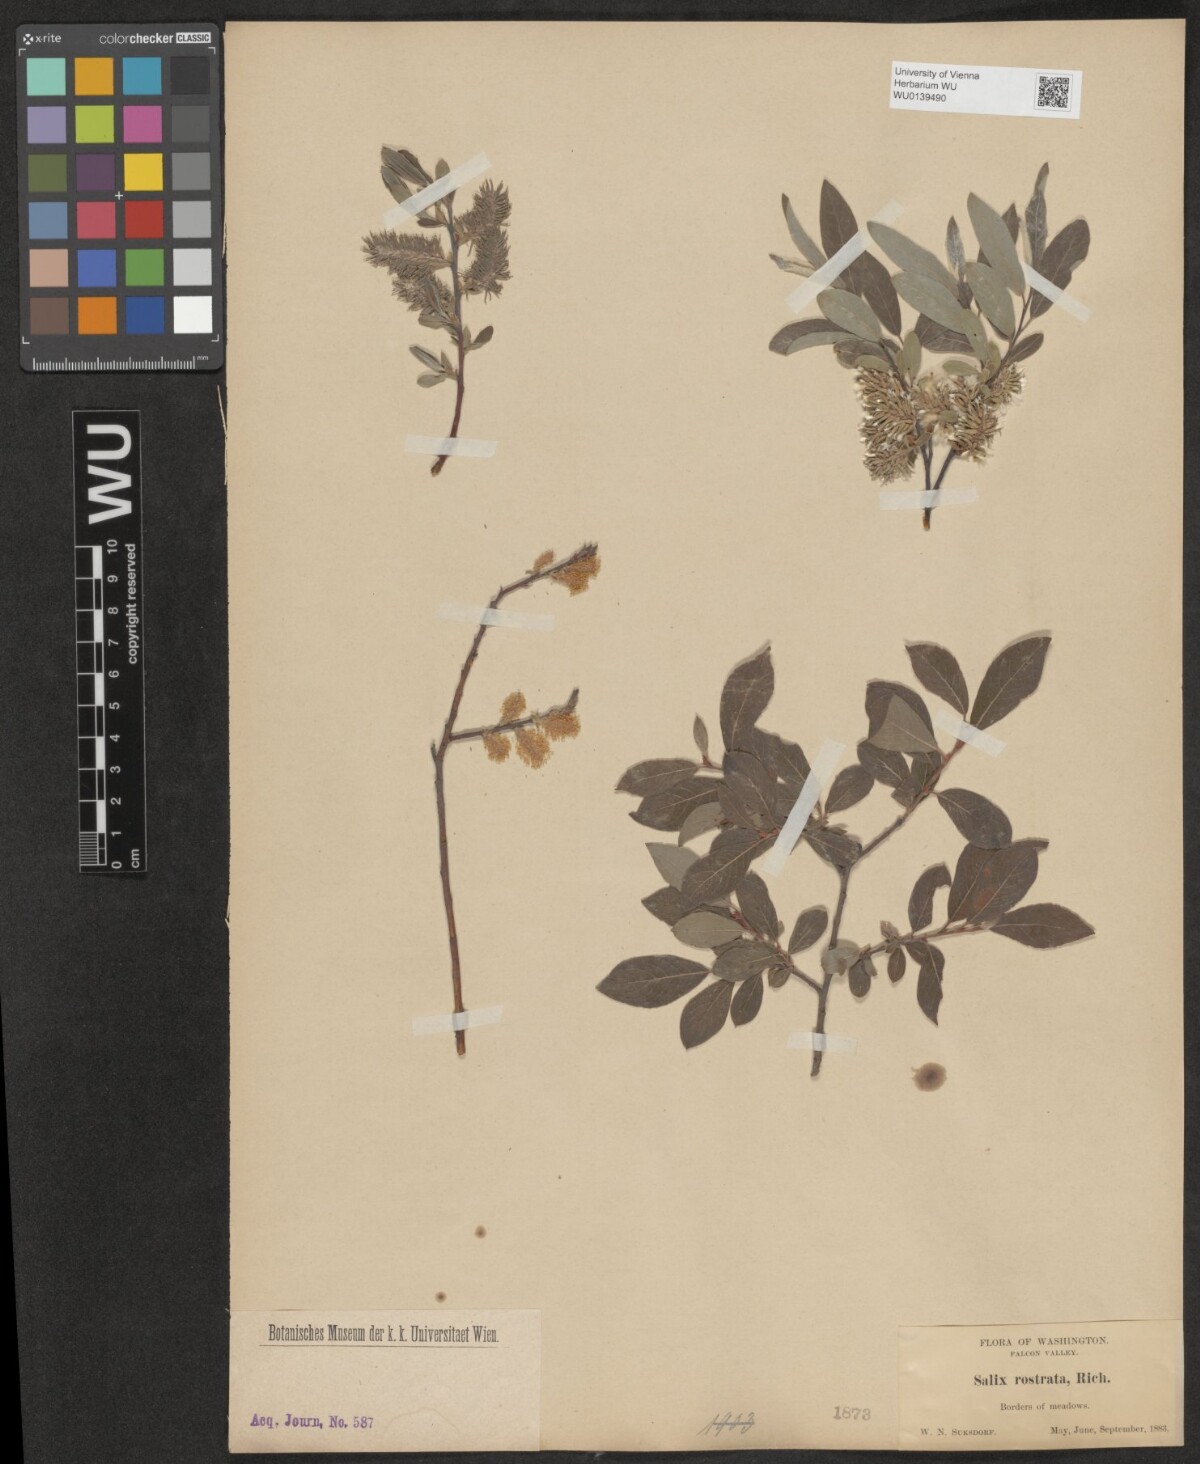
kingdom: Plantae
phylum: Tracheophyta
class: Magnoliopsida
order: Malpighiales
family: Salicaceae
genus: Salix
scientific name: Salix bebbiana
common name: Bebb's willow
